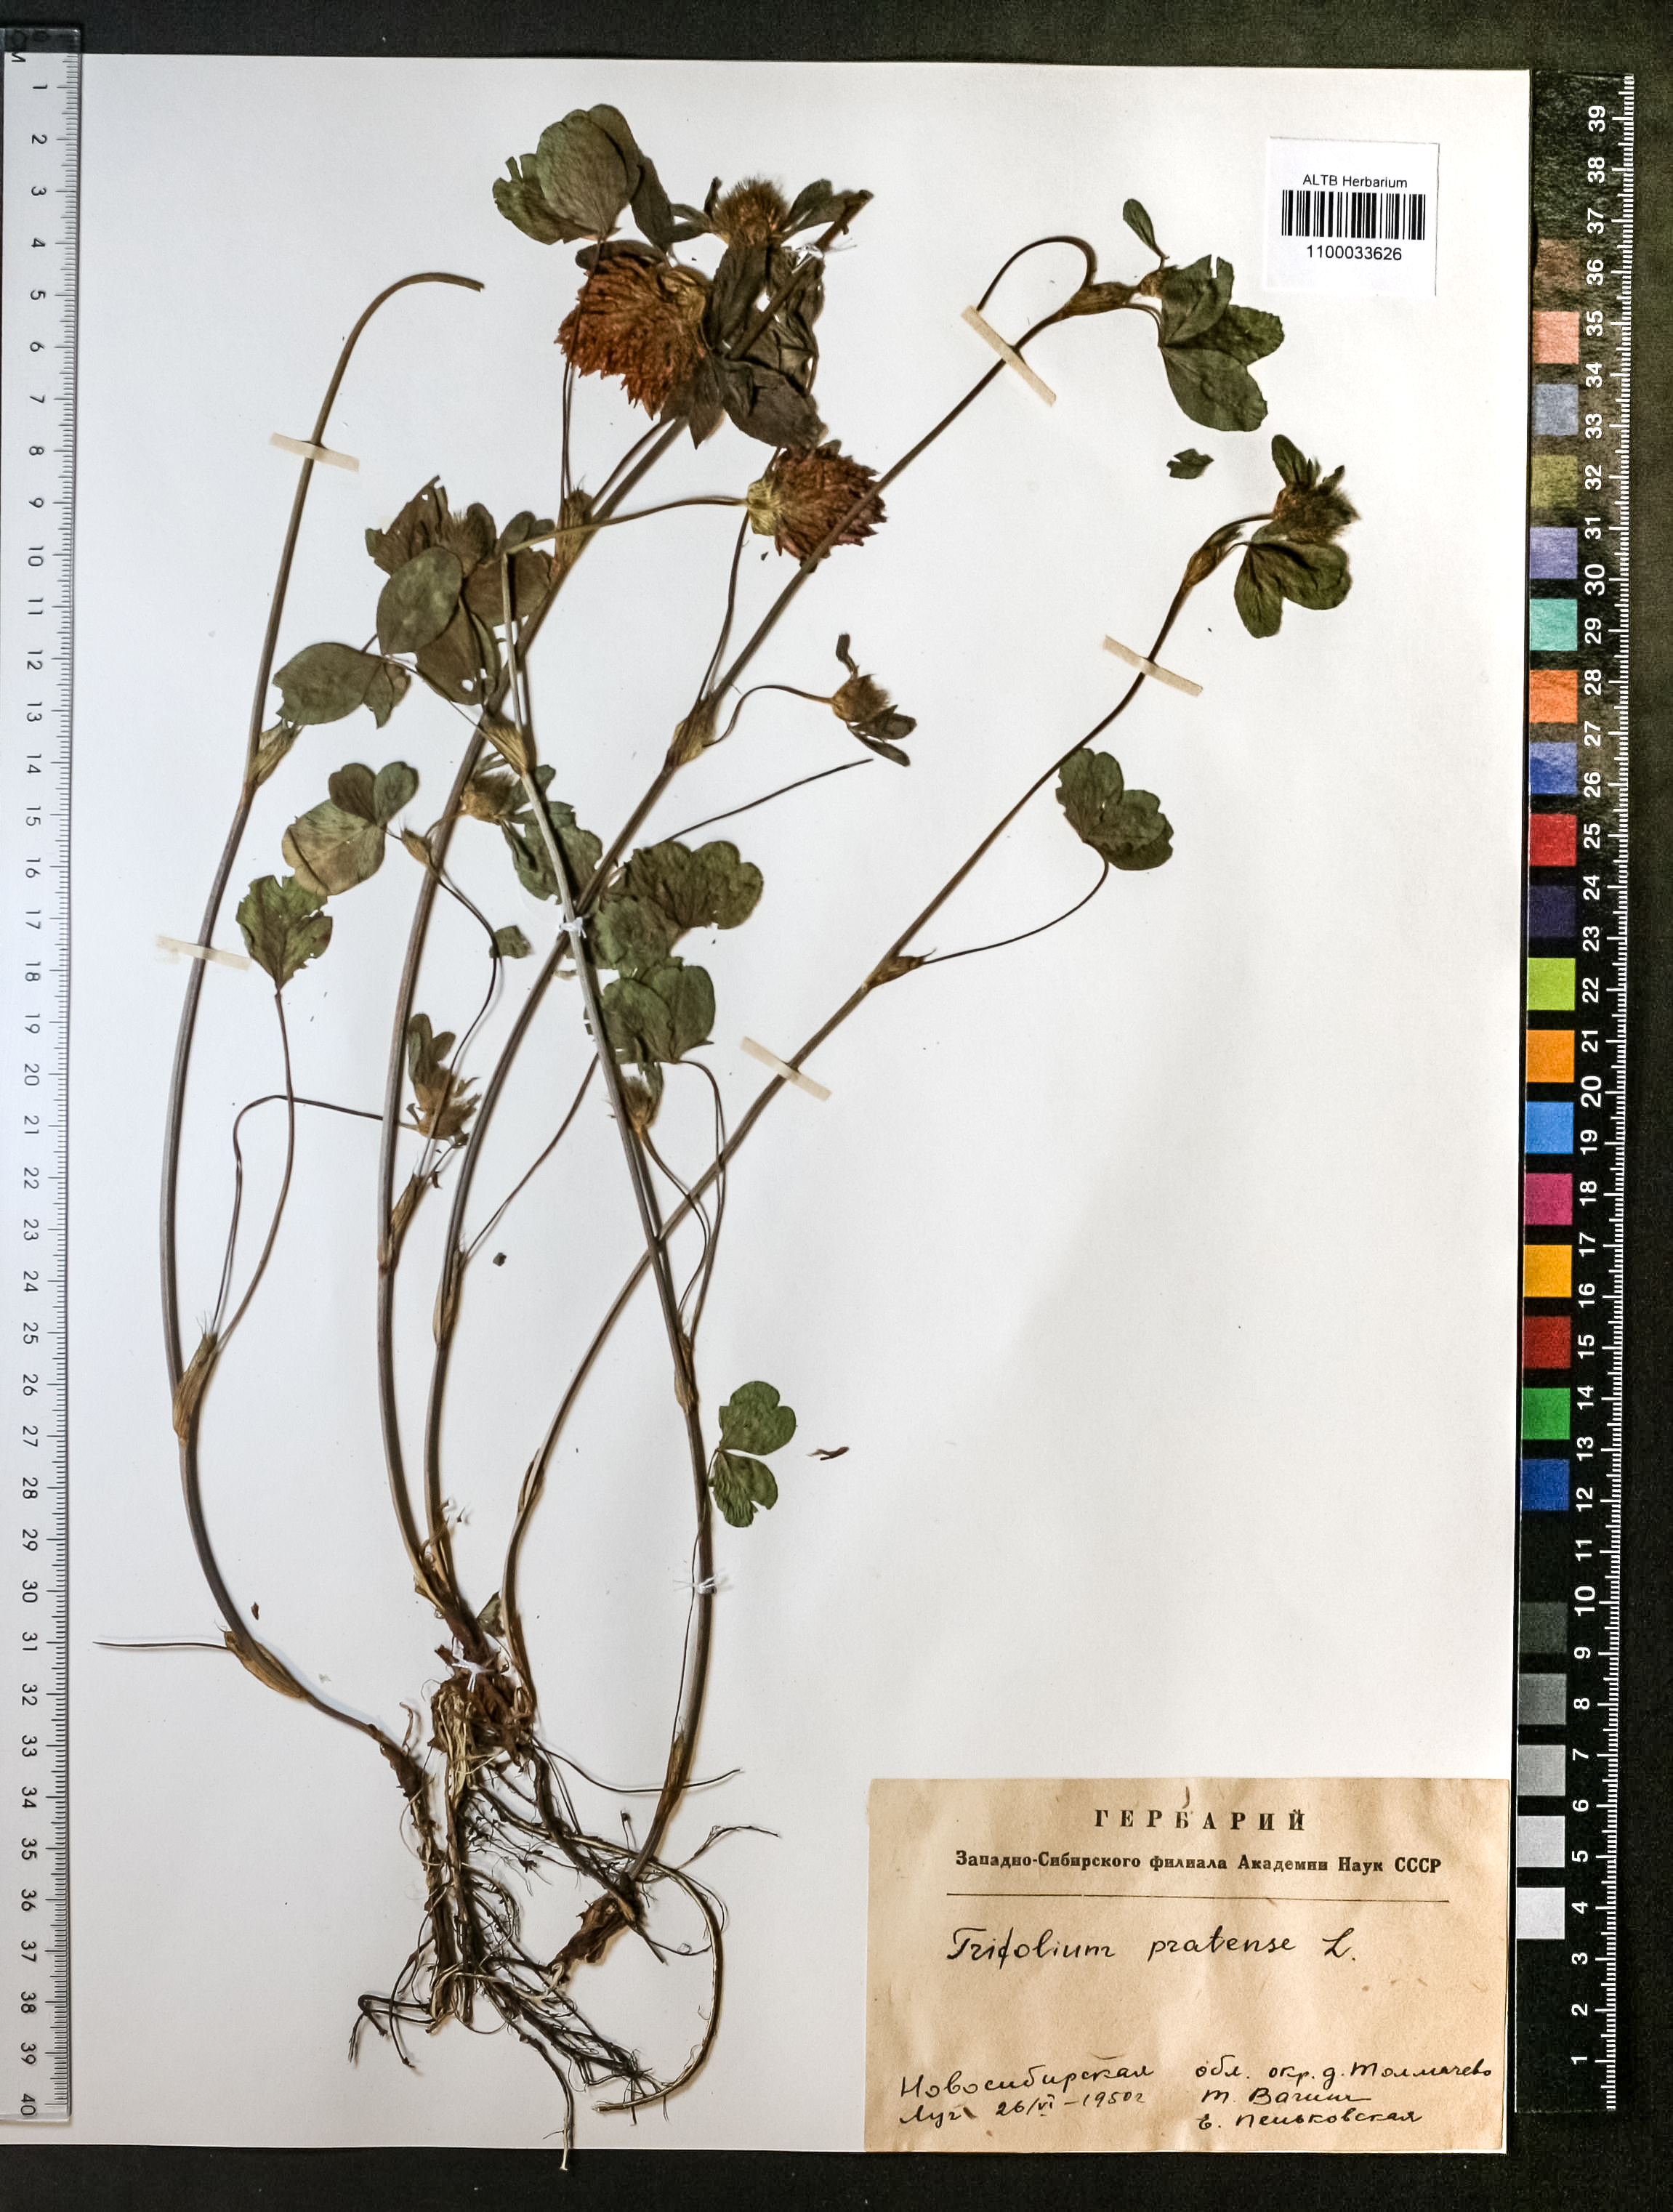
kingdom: Plantae
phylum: Tracheophyta
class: Magnoliopsida
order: Fabales
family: Fabaceae
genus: Trifolium
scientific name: Trifolium pratense
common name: Red clover
